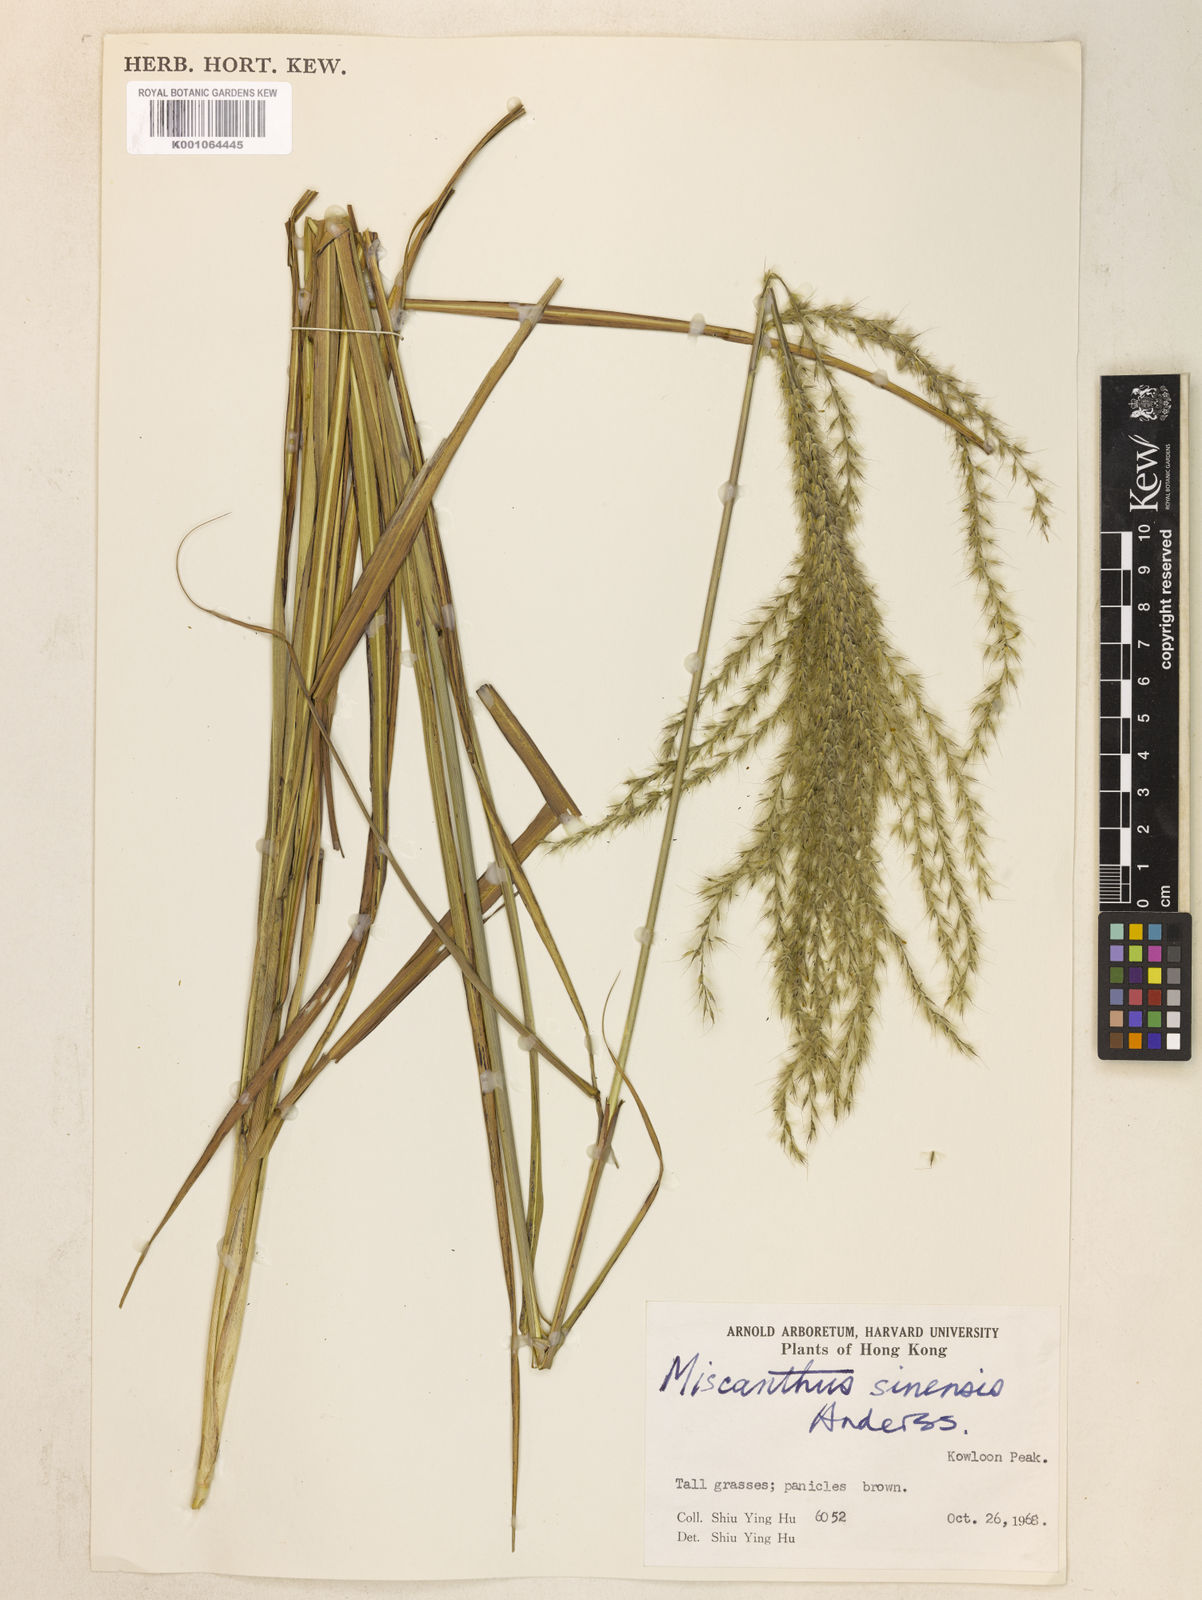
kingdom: Plantae
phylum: Tracheophyta
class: Liliopsida
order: Poales
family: Poaceae
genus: Miscanthus
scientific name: Miscanthus sinensis
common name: Chinese silvergrass
